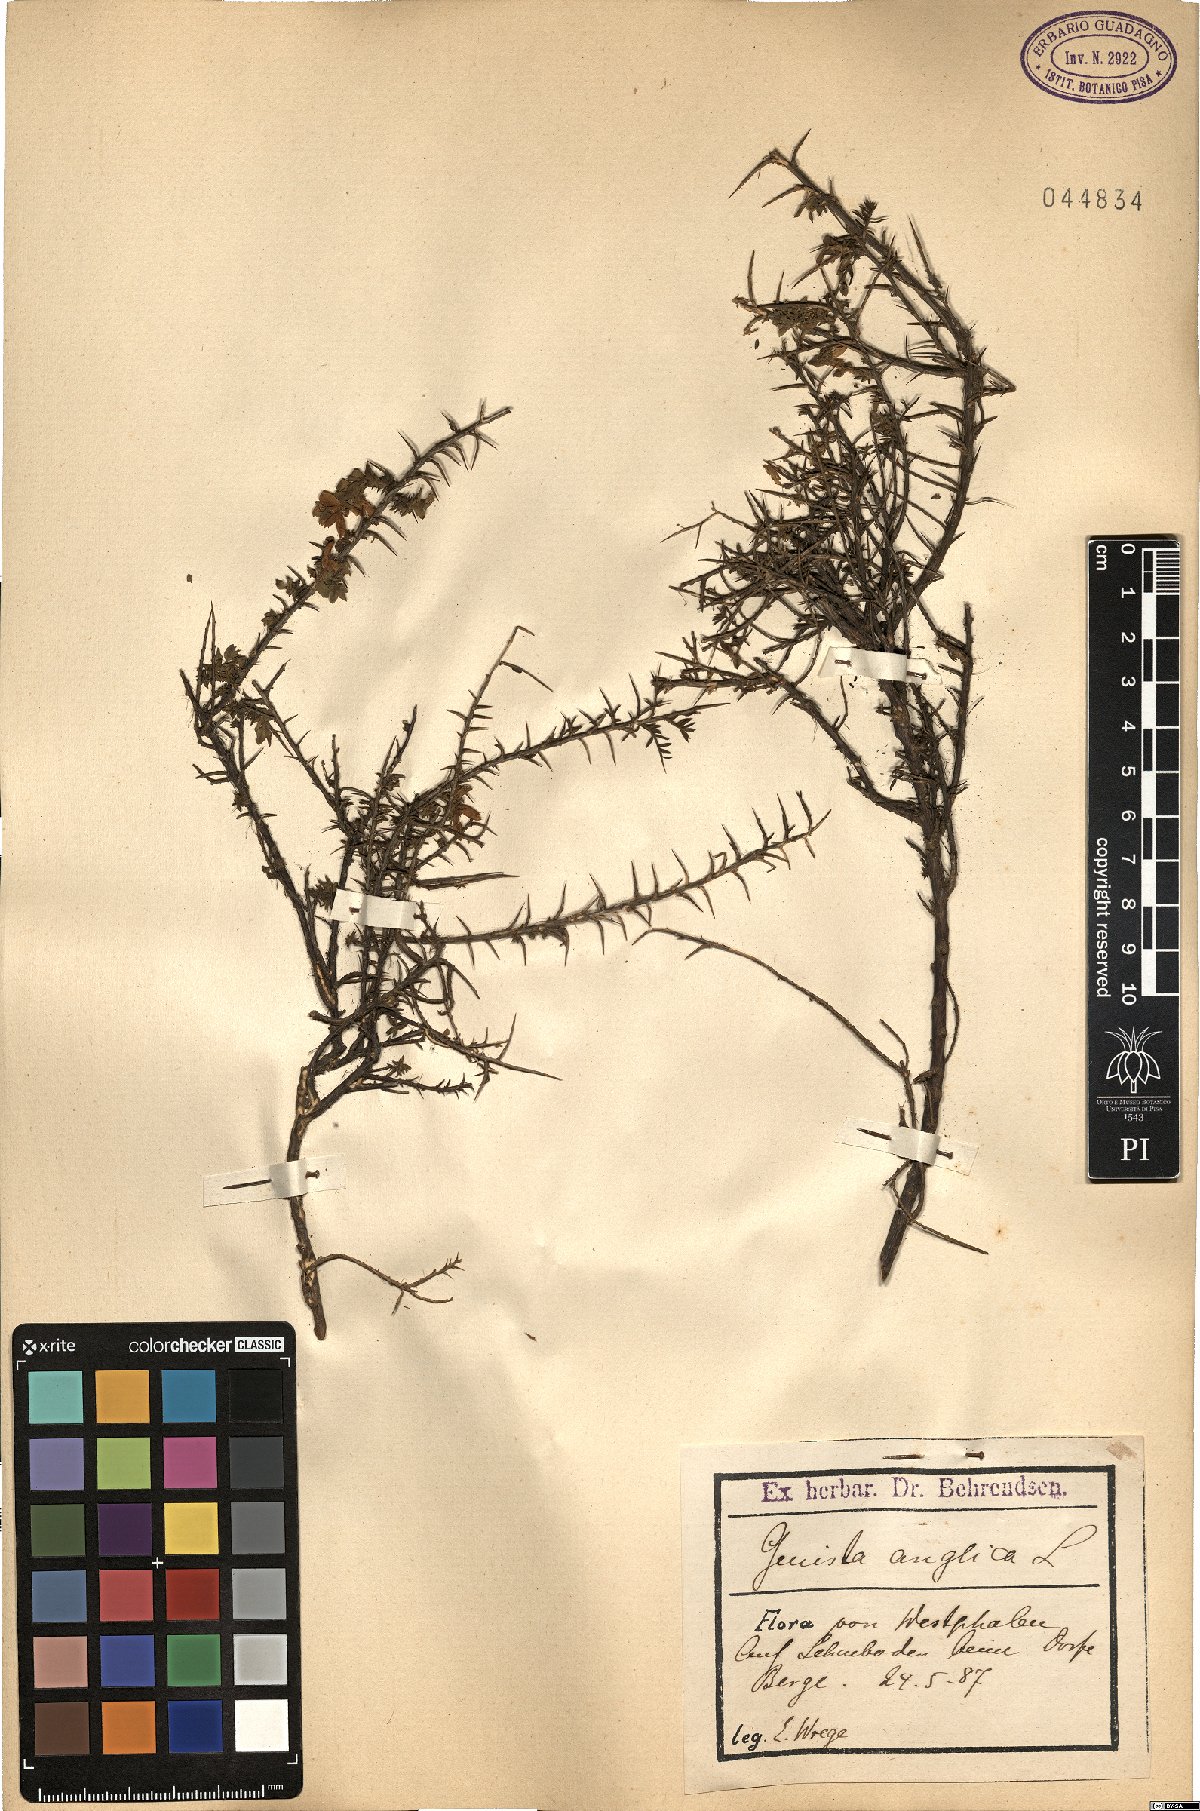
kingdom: Plantae
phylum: Tracheophyta
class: Magnoliopsida
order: Fabales
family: Fabaceae
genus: Genista
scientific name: Genista anglica
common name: Petty whin
